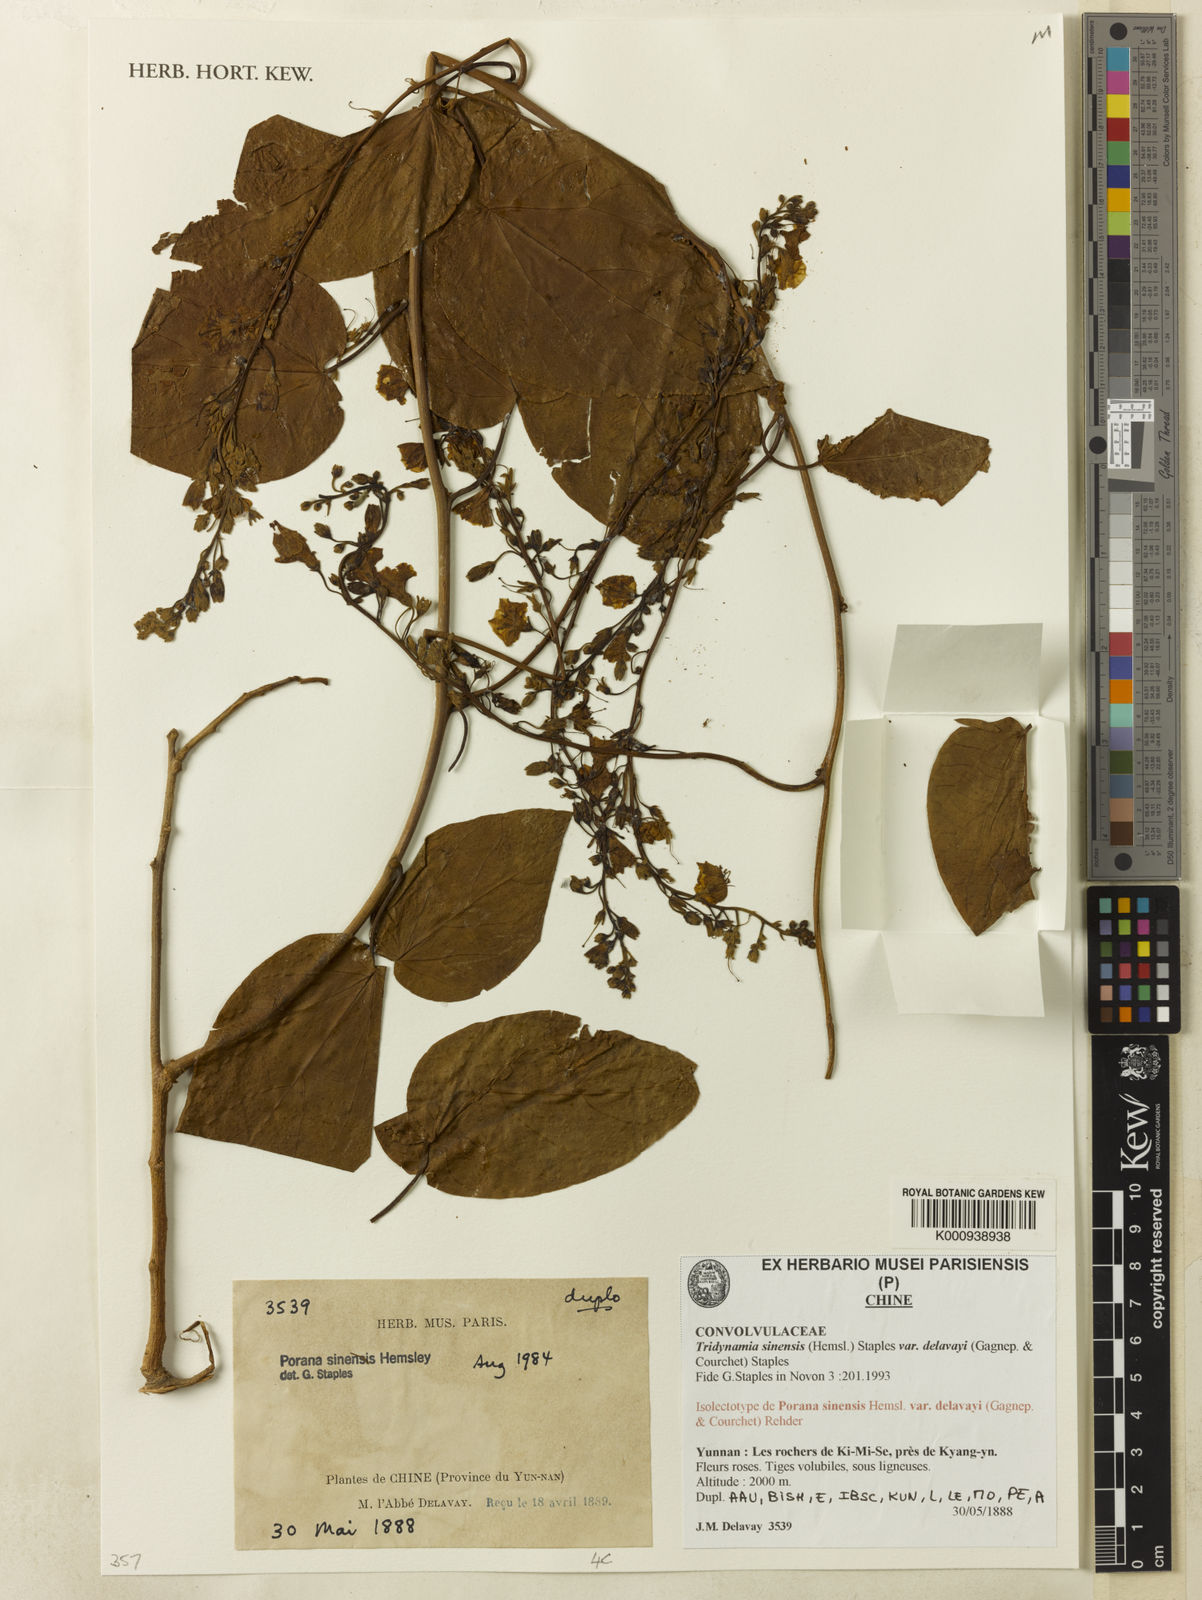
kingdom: Plantae
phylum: Tracheophyta
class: Magnoliopsida
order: Solanales
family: Convolvulaceae
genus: Tridynamia
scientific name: Tridynamia sinensis
